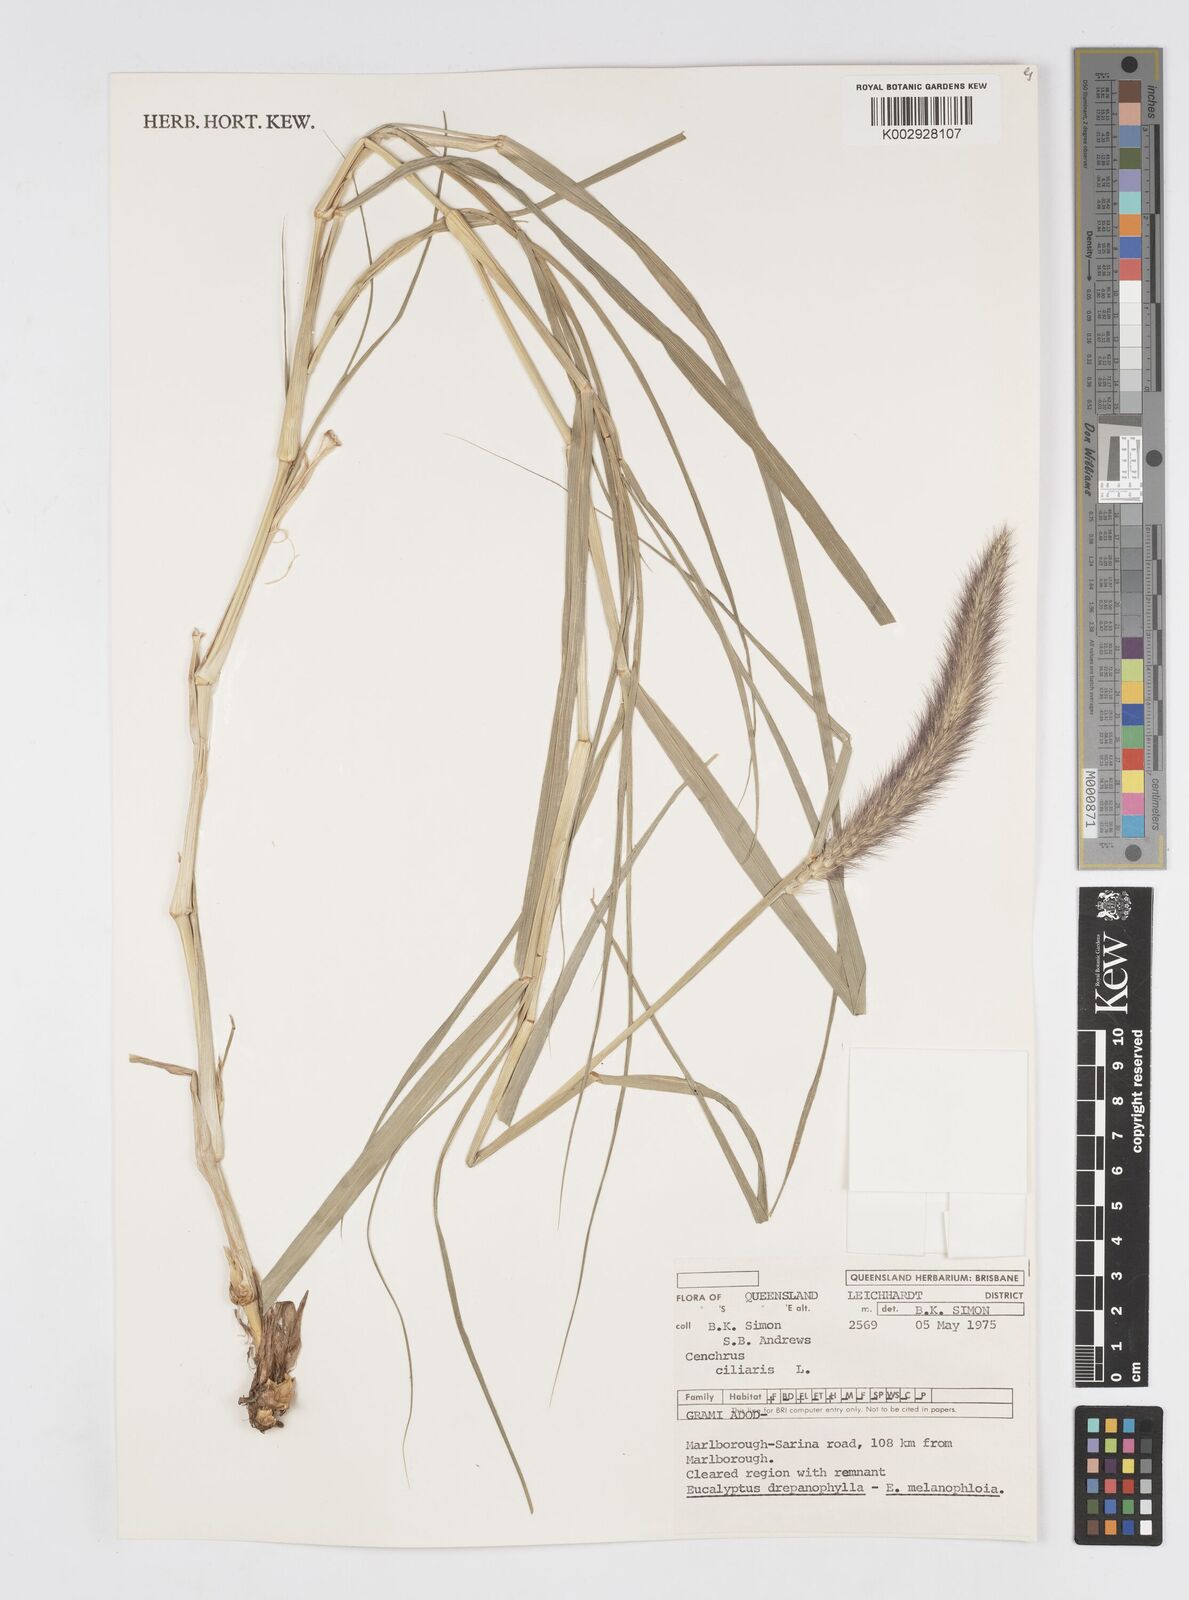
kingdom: Plantae
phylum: Tracheophyta
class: Liliopsida
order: Poales
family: Poaceae
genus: Cenchrus
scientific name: Cenchrus ciliaris
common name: Buffelgrass
